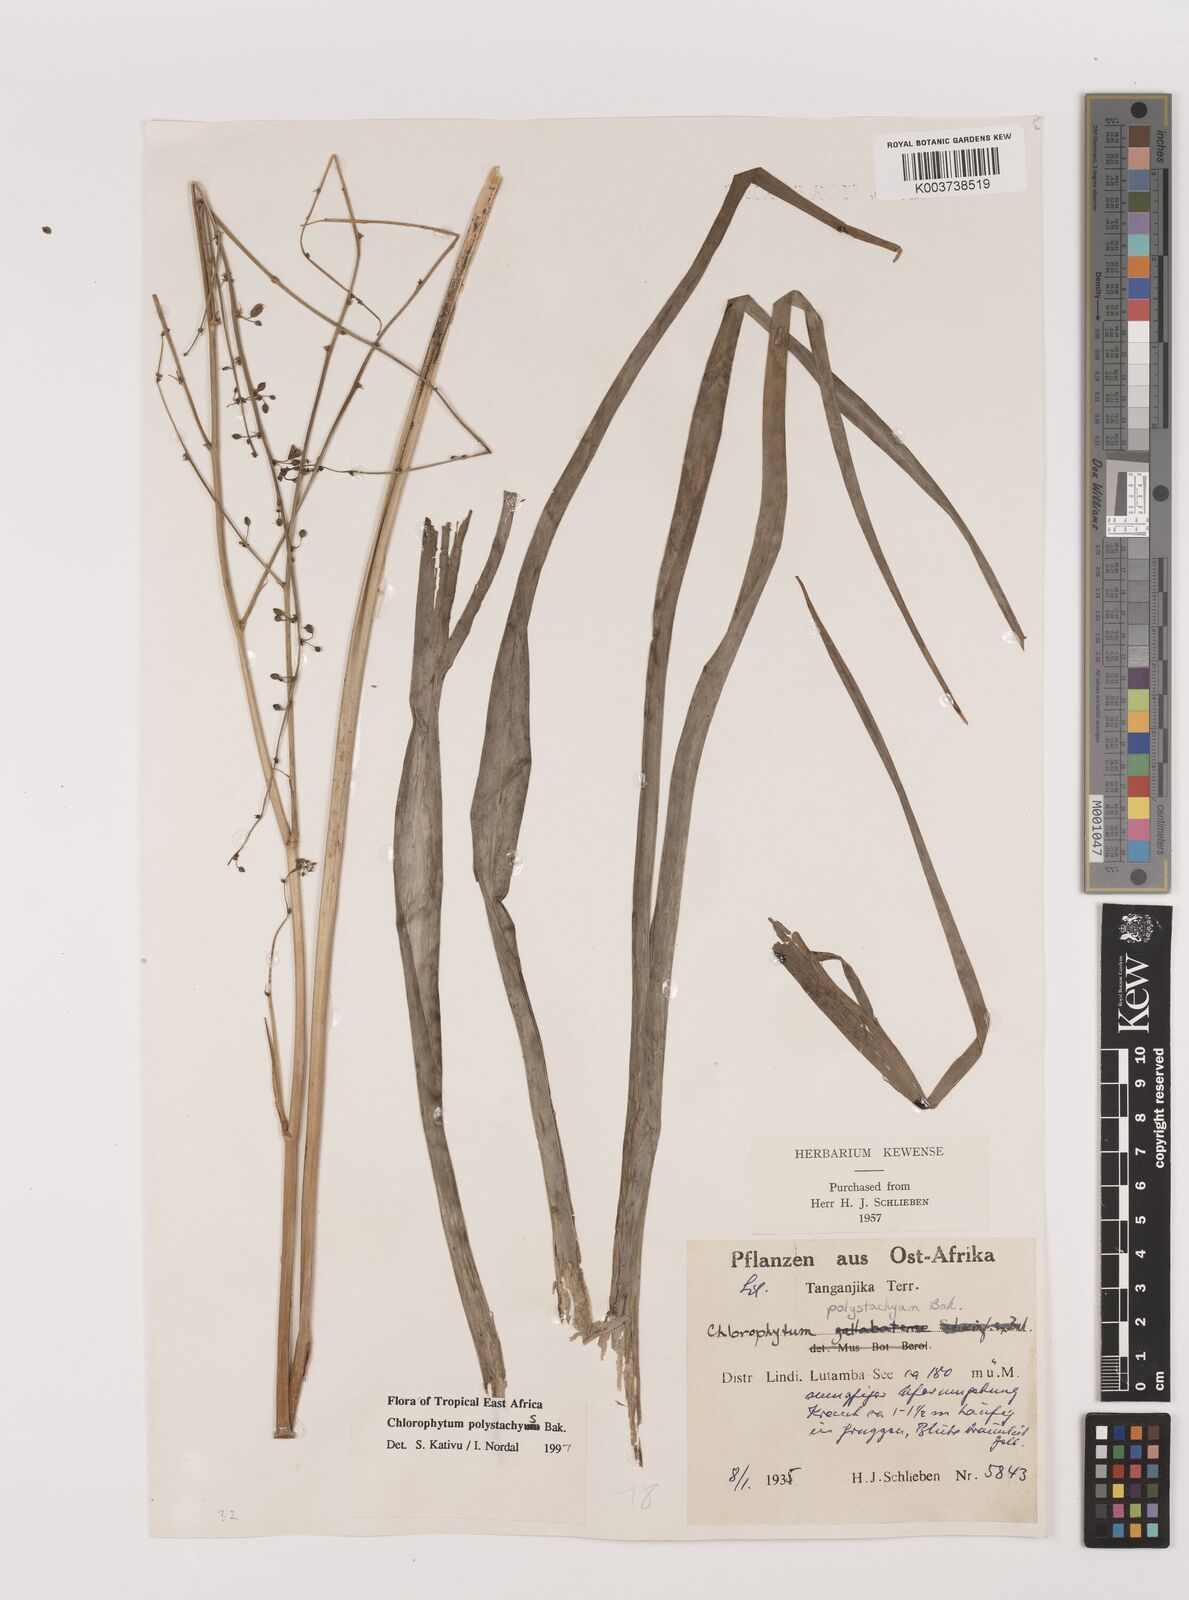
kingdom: Plantae
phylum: Tracheophyta
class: Liliopsida
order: Asparagales
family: Asparagaceae
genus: Chlorophytum
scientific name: Chlorophytum polystachys
